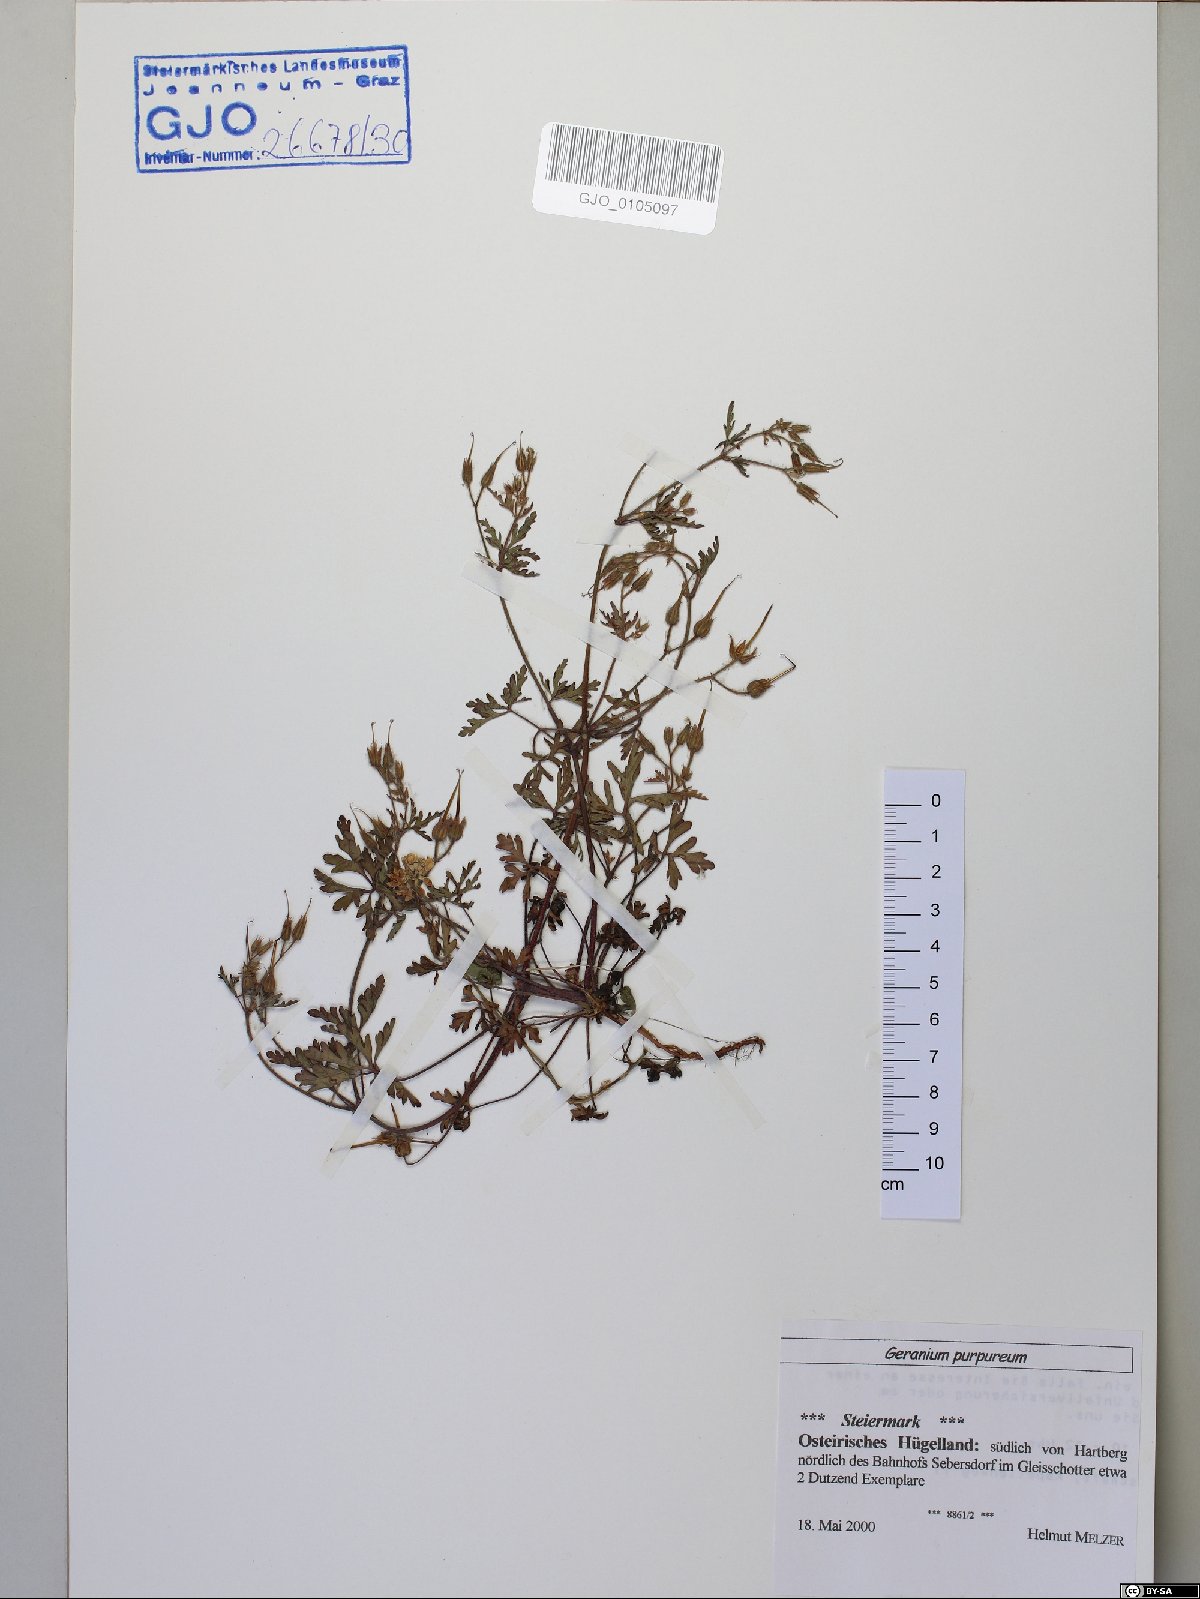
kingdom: Plantae
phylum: Tracheophyta
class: Magnoliopsida
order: Geraniales
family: Geraniaceae
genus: Geranium
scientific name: Geranium purpureum
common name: Little-robin
